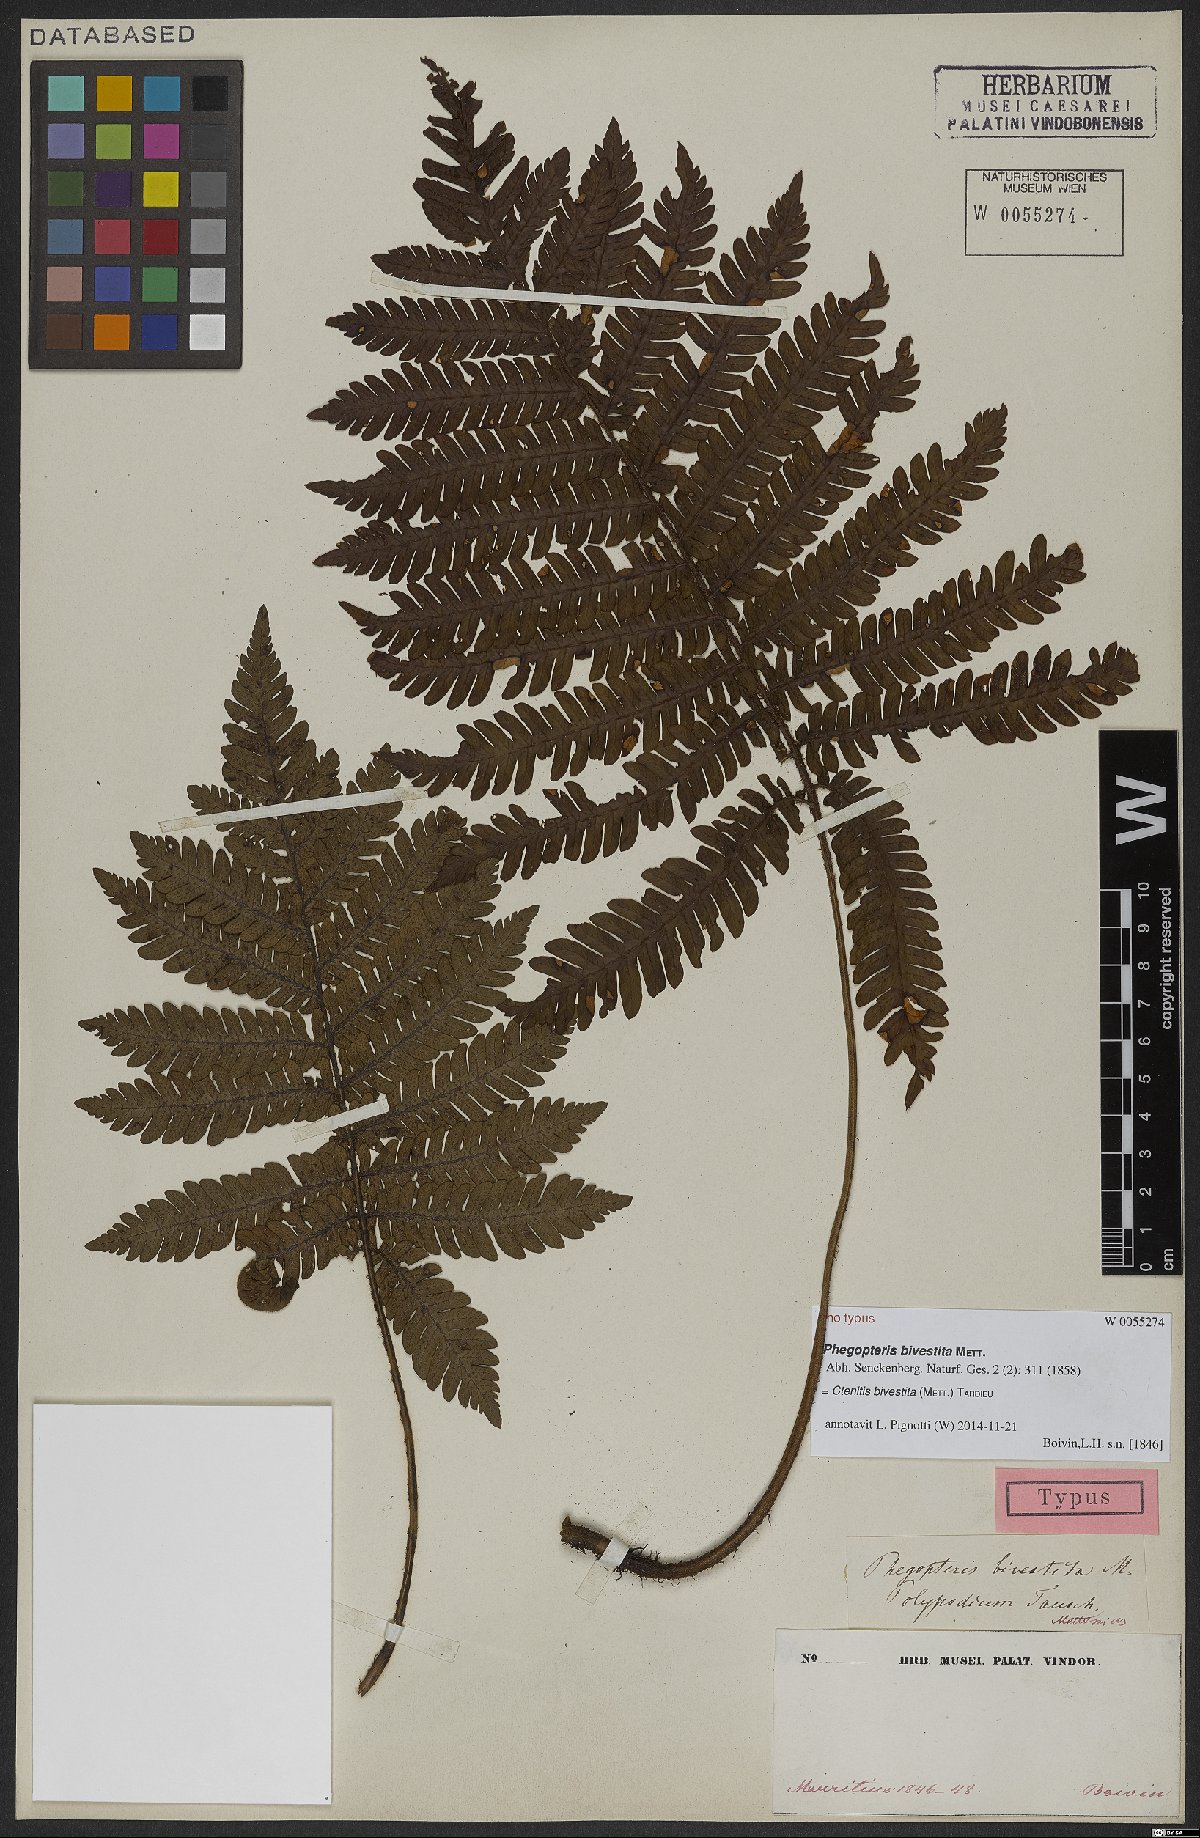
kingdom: Plantae
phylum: Tracheophyta
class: Polypodiopsida
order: Polypodiales
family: Dryopteridaceae
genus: Ctenitis
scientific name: Ctenitis bivestita
